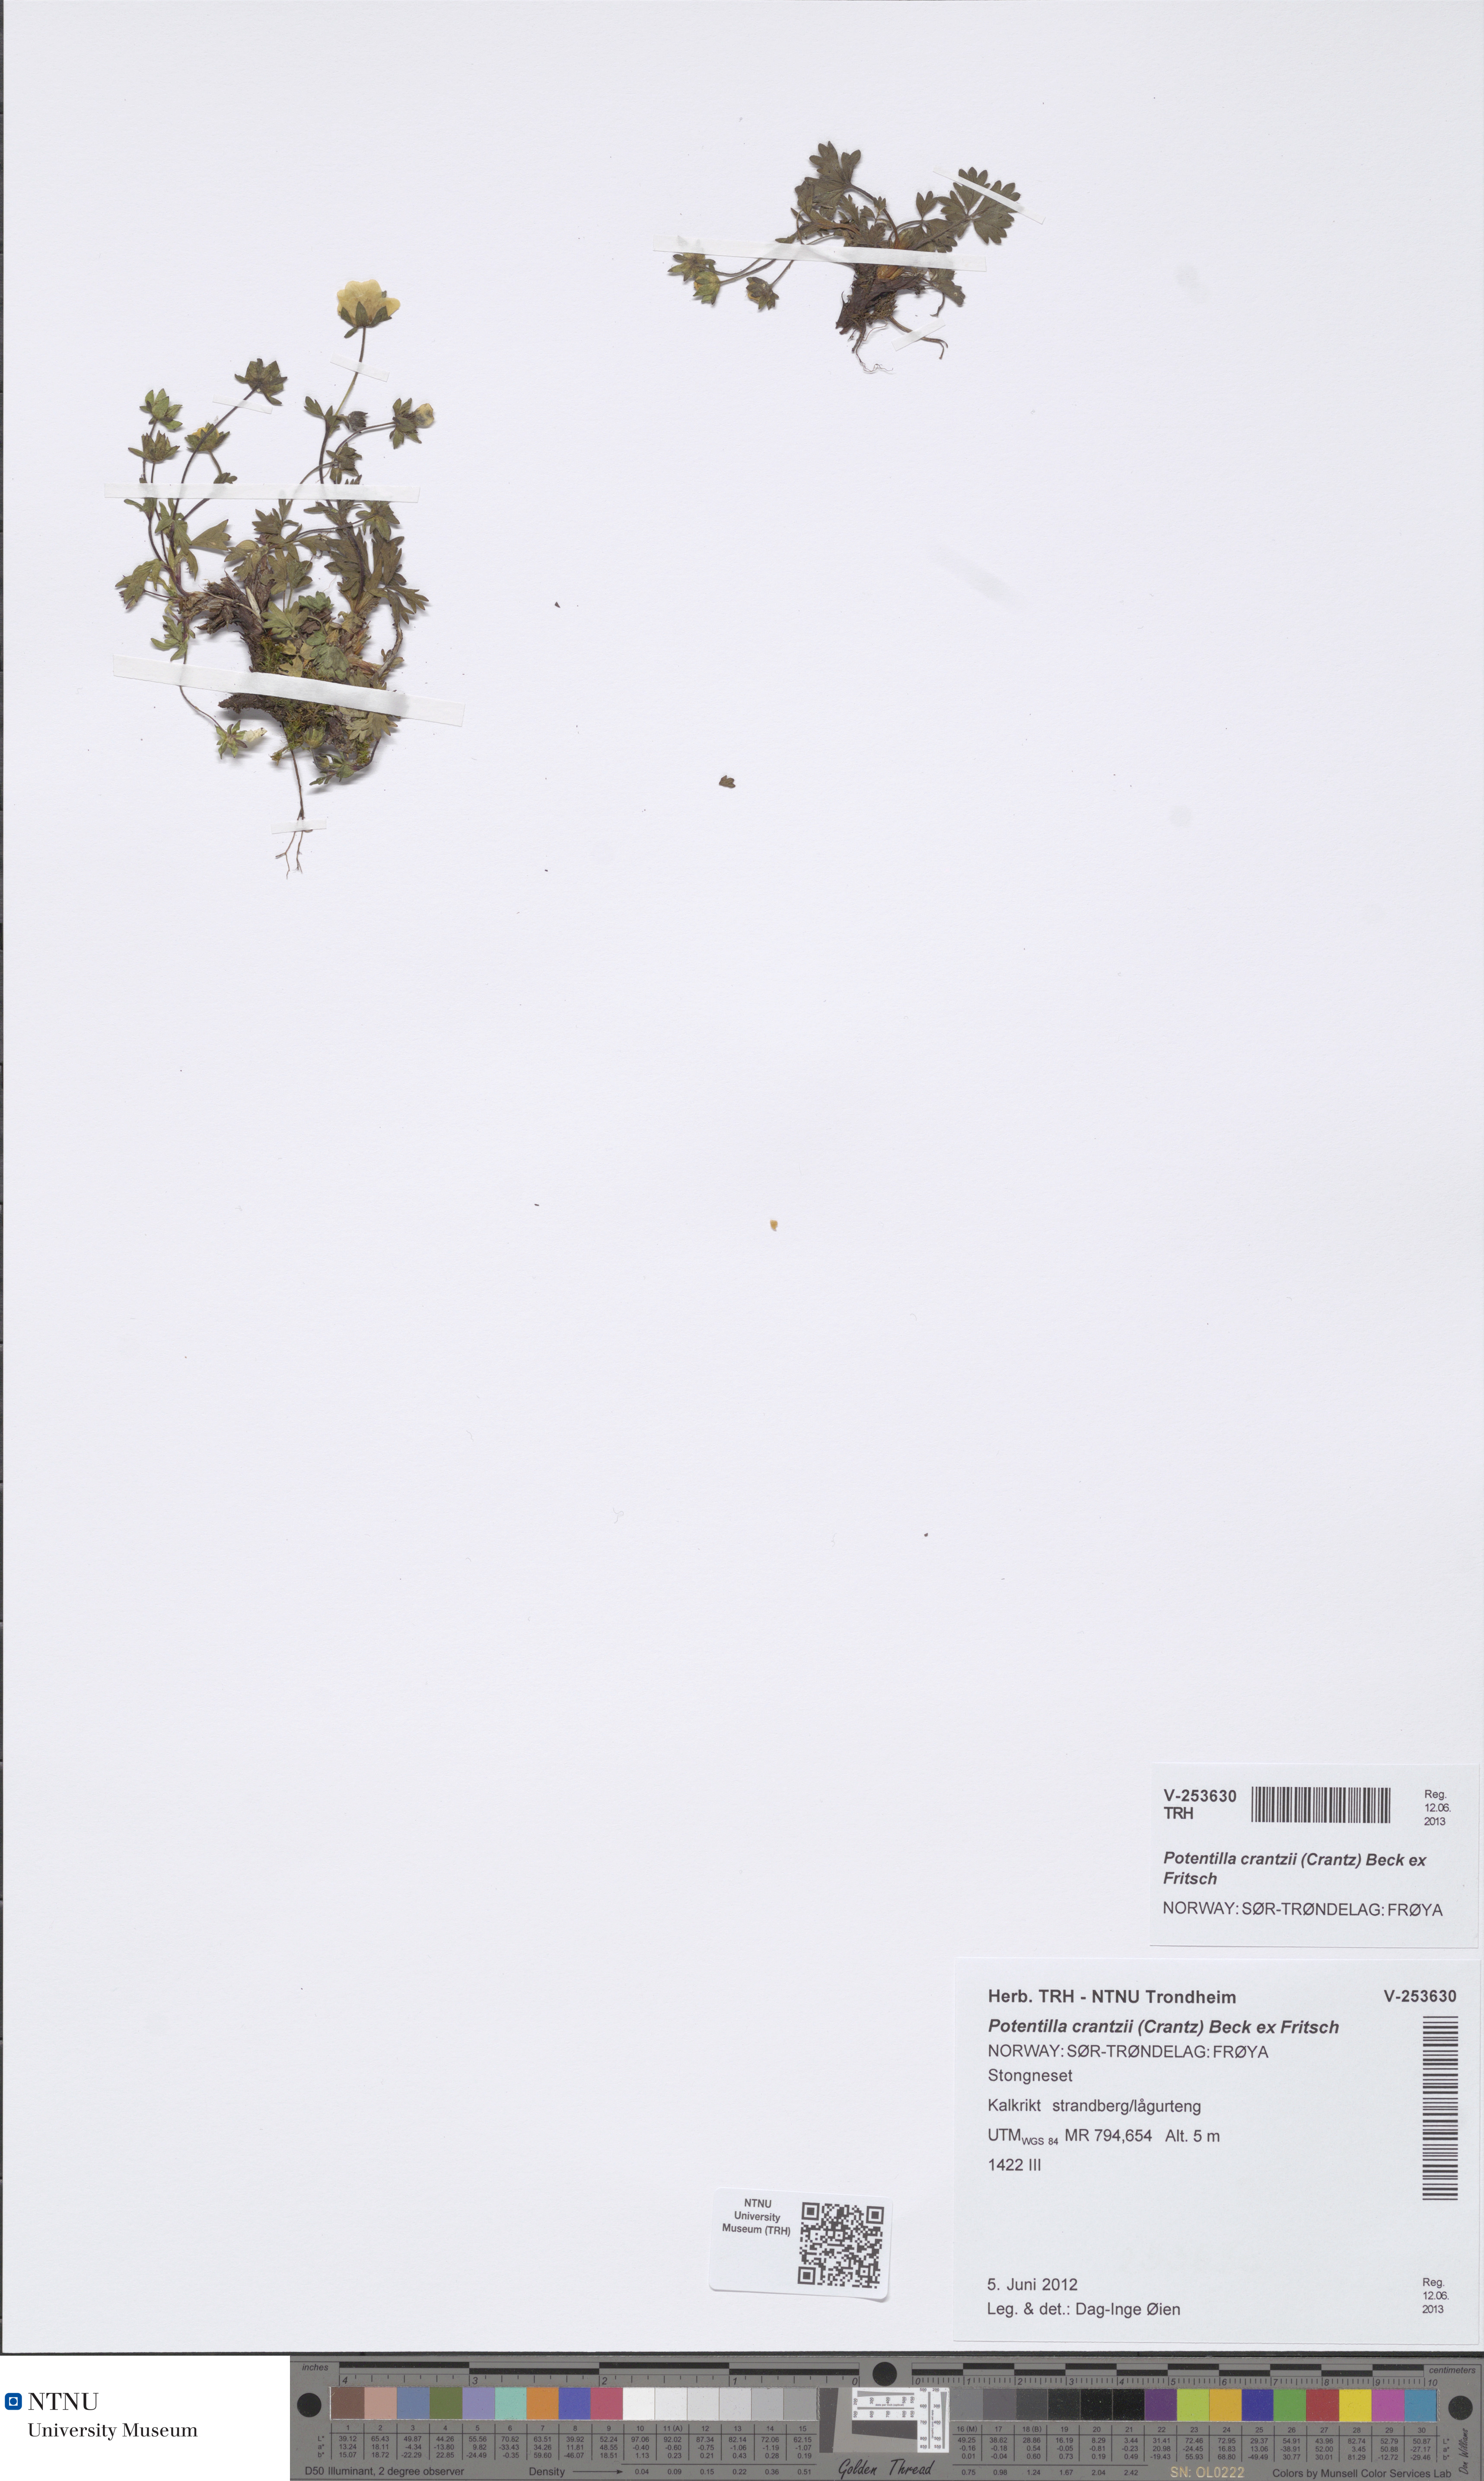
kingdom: Plantae
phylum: Tracheophyta
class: Magnoliopsida
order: Rosales
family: Rosaceae
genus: Potentilla
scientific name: Potentilla crantzii
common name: Alpine cinquefoil
